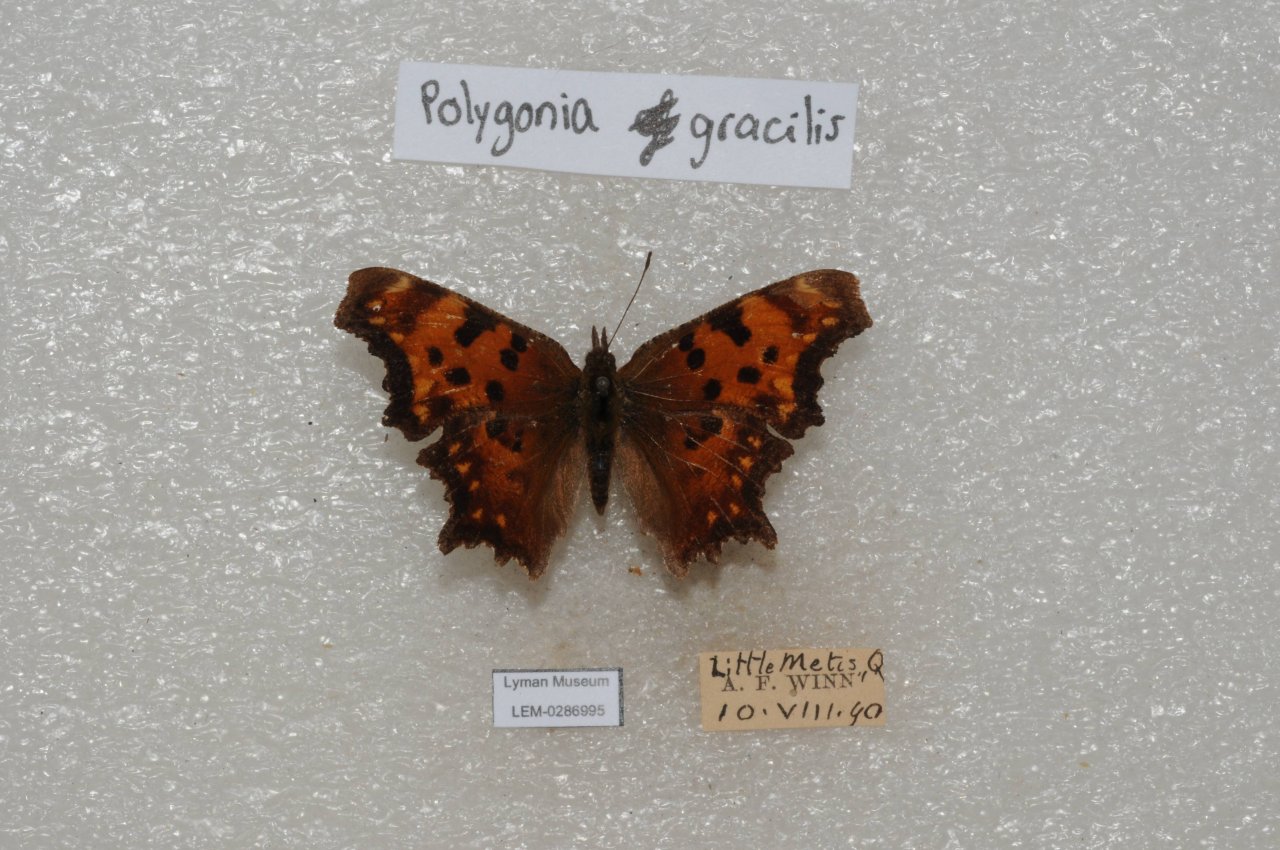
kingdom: Animalia
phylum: Arthropoda
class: Insecta
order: Lepidoptera
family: Nymphalidae
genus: Polygonia
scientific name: Polygonia gracilis
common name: Hoary Comma
